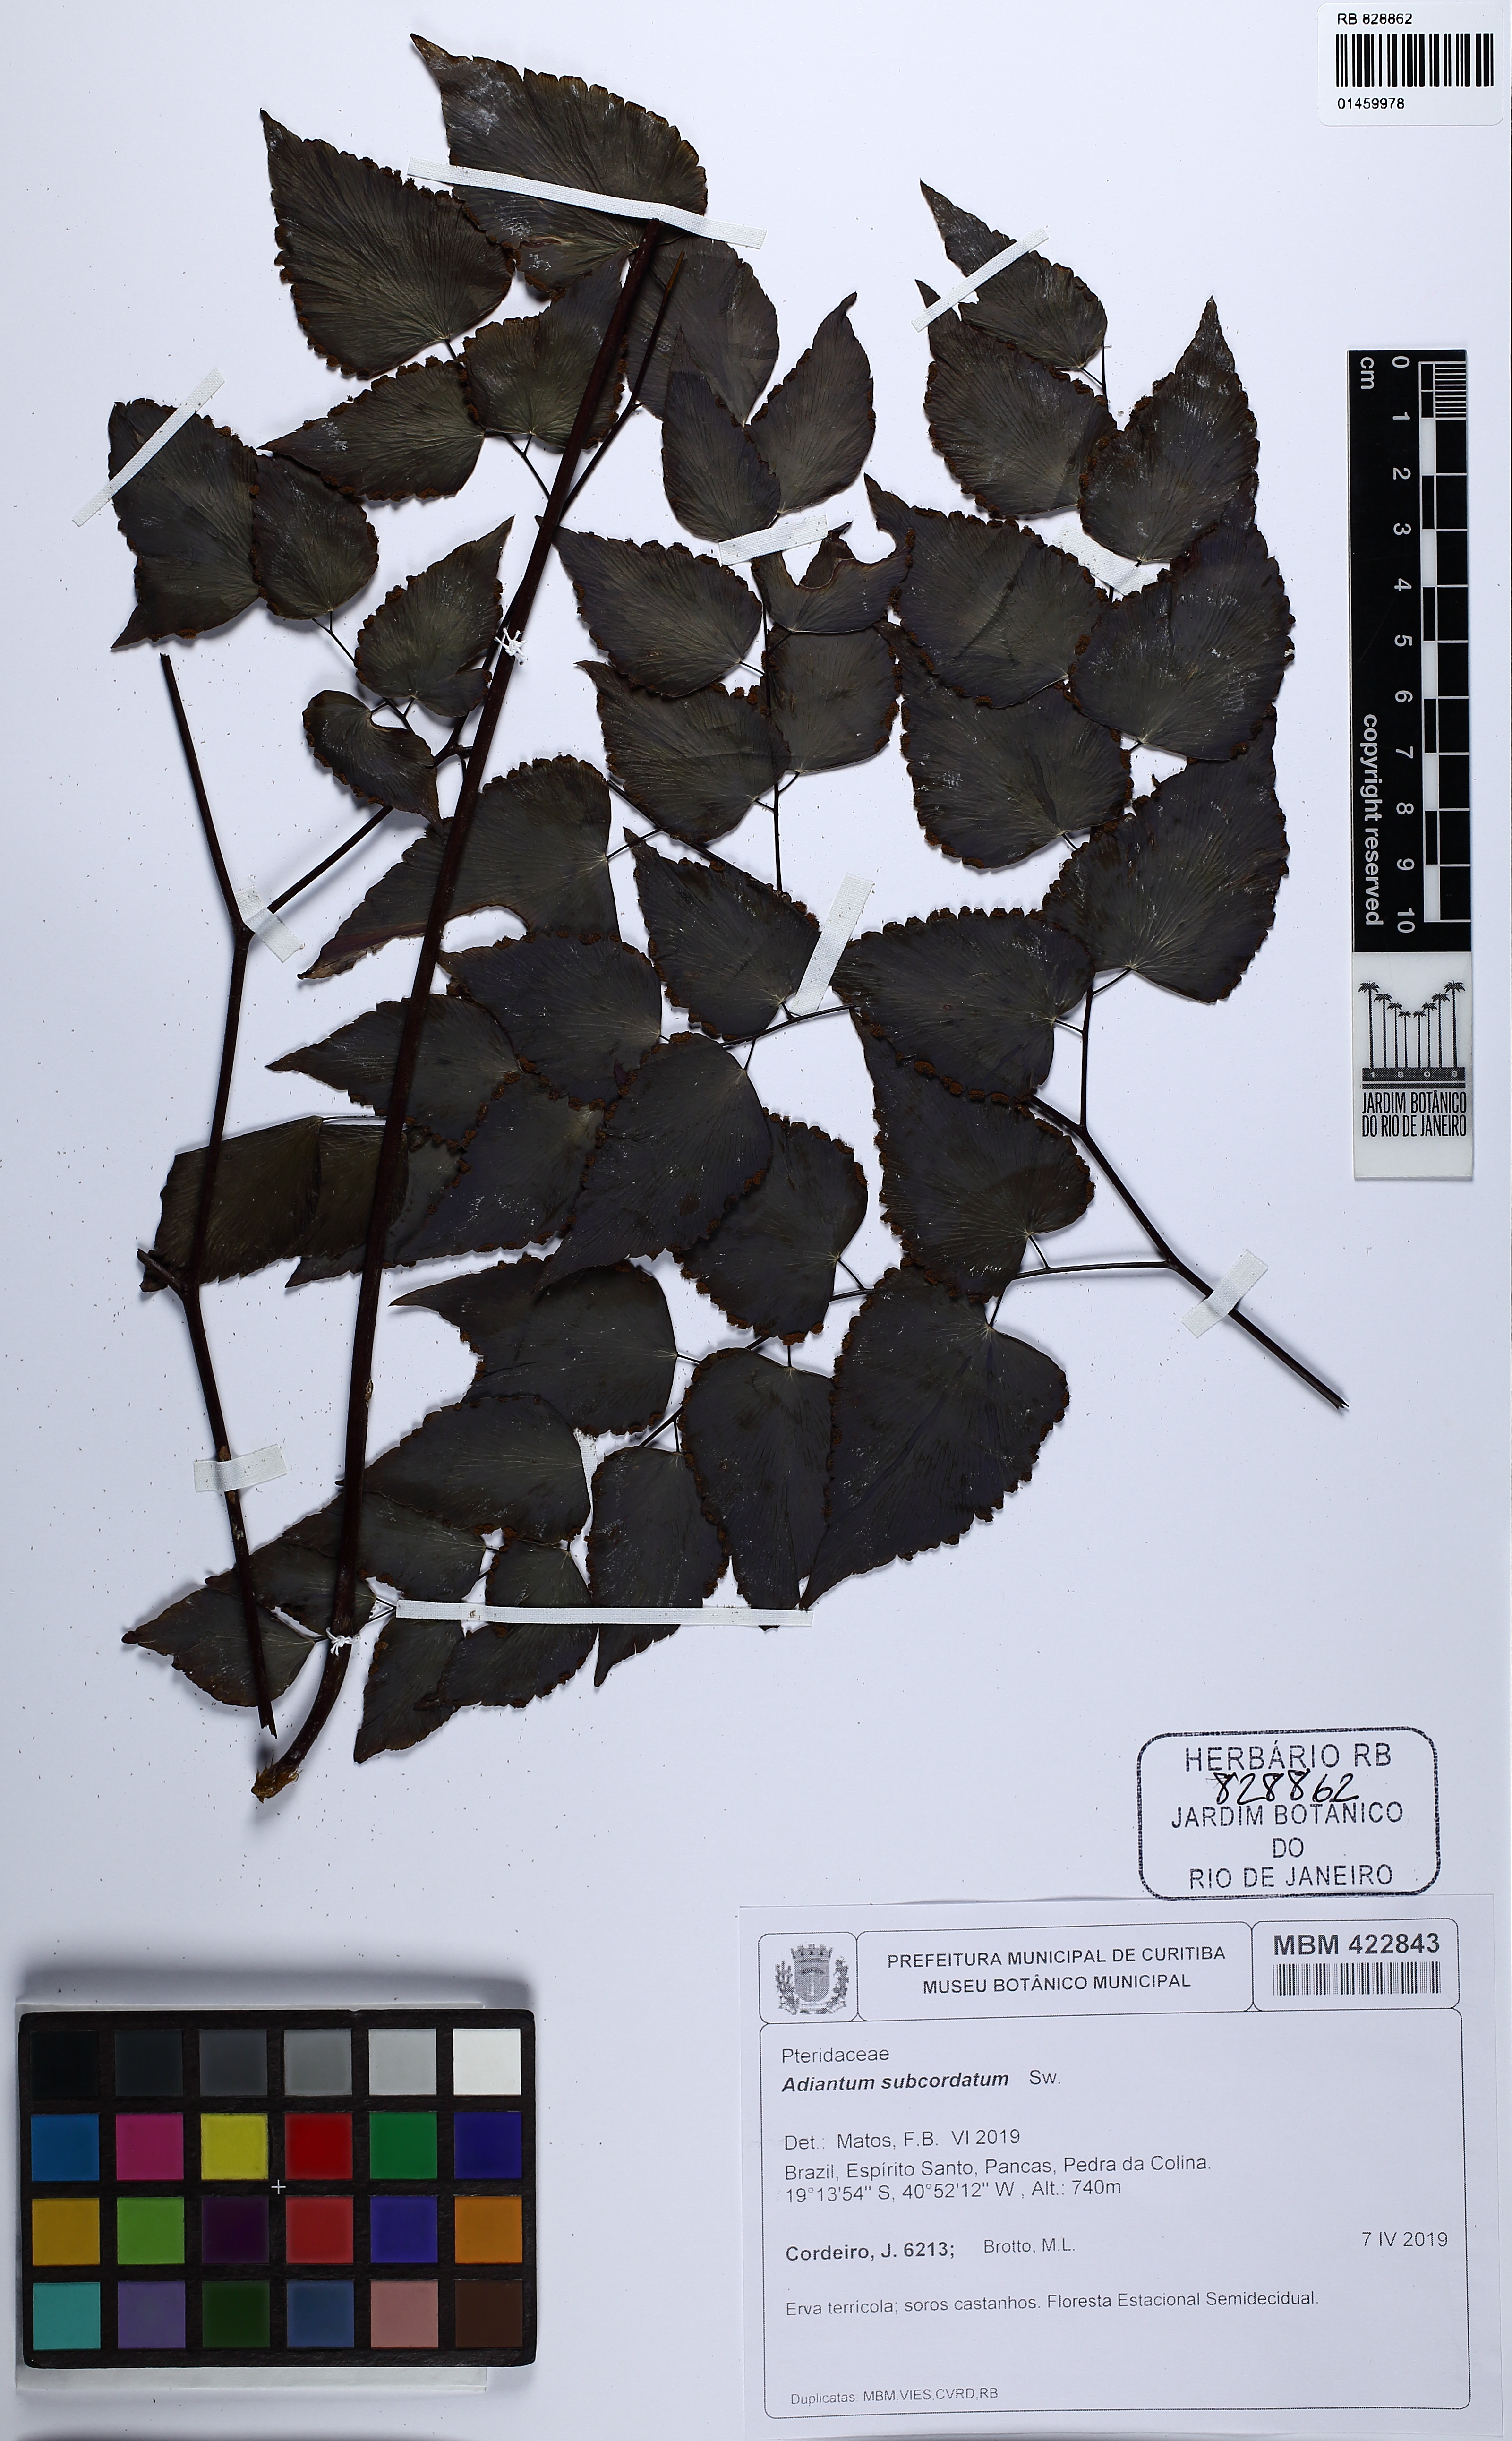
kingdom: Plantae
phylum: Tracheophyta
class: Polypodiopsida
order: Polypodiales
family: Pteridaceae
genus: Adiantum
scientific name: Adiantum subcordatum
